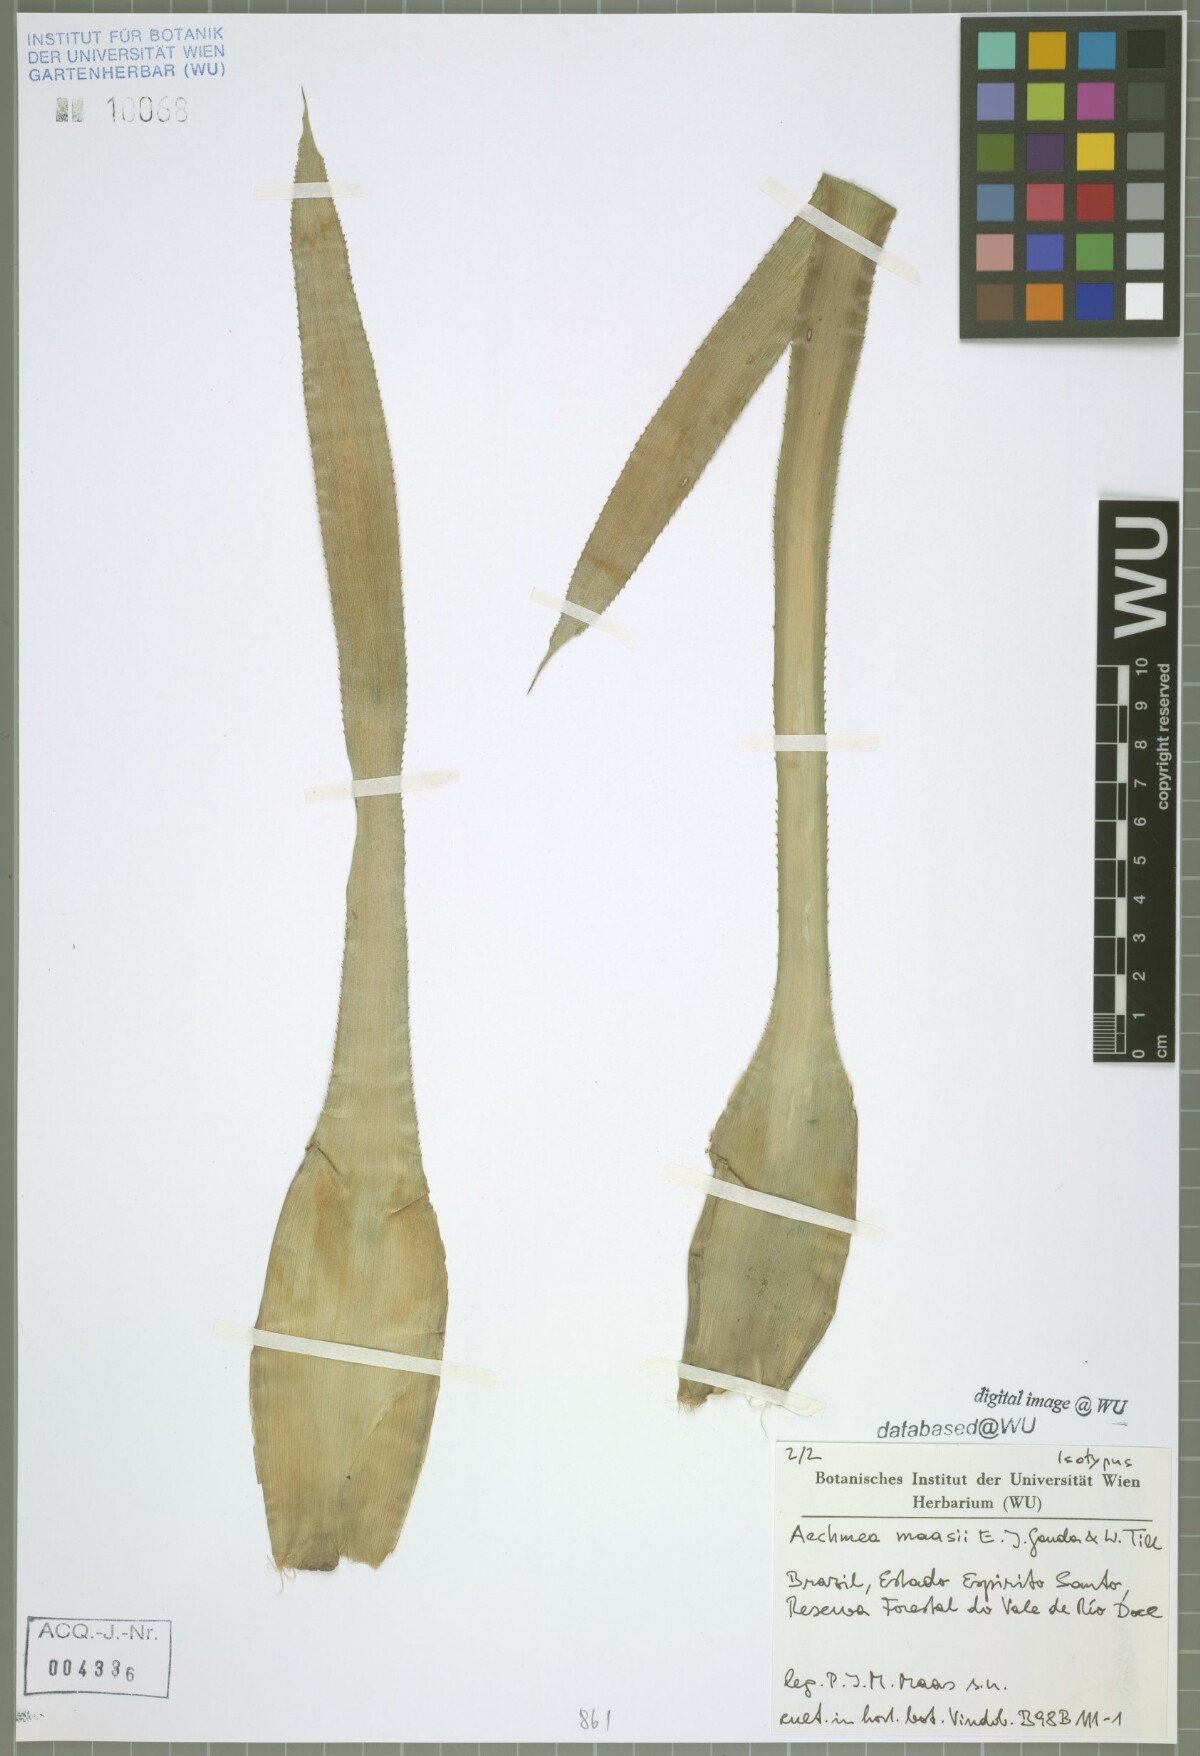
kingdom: Plantae
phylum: Tracheophyta
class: Liliopsida
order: Poales
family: Bromeliaceae
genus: Aechmea
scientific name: Aechmea maasii
